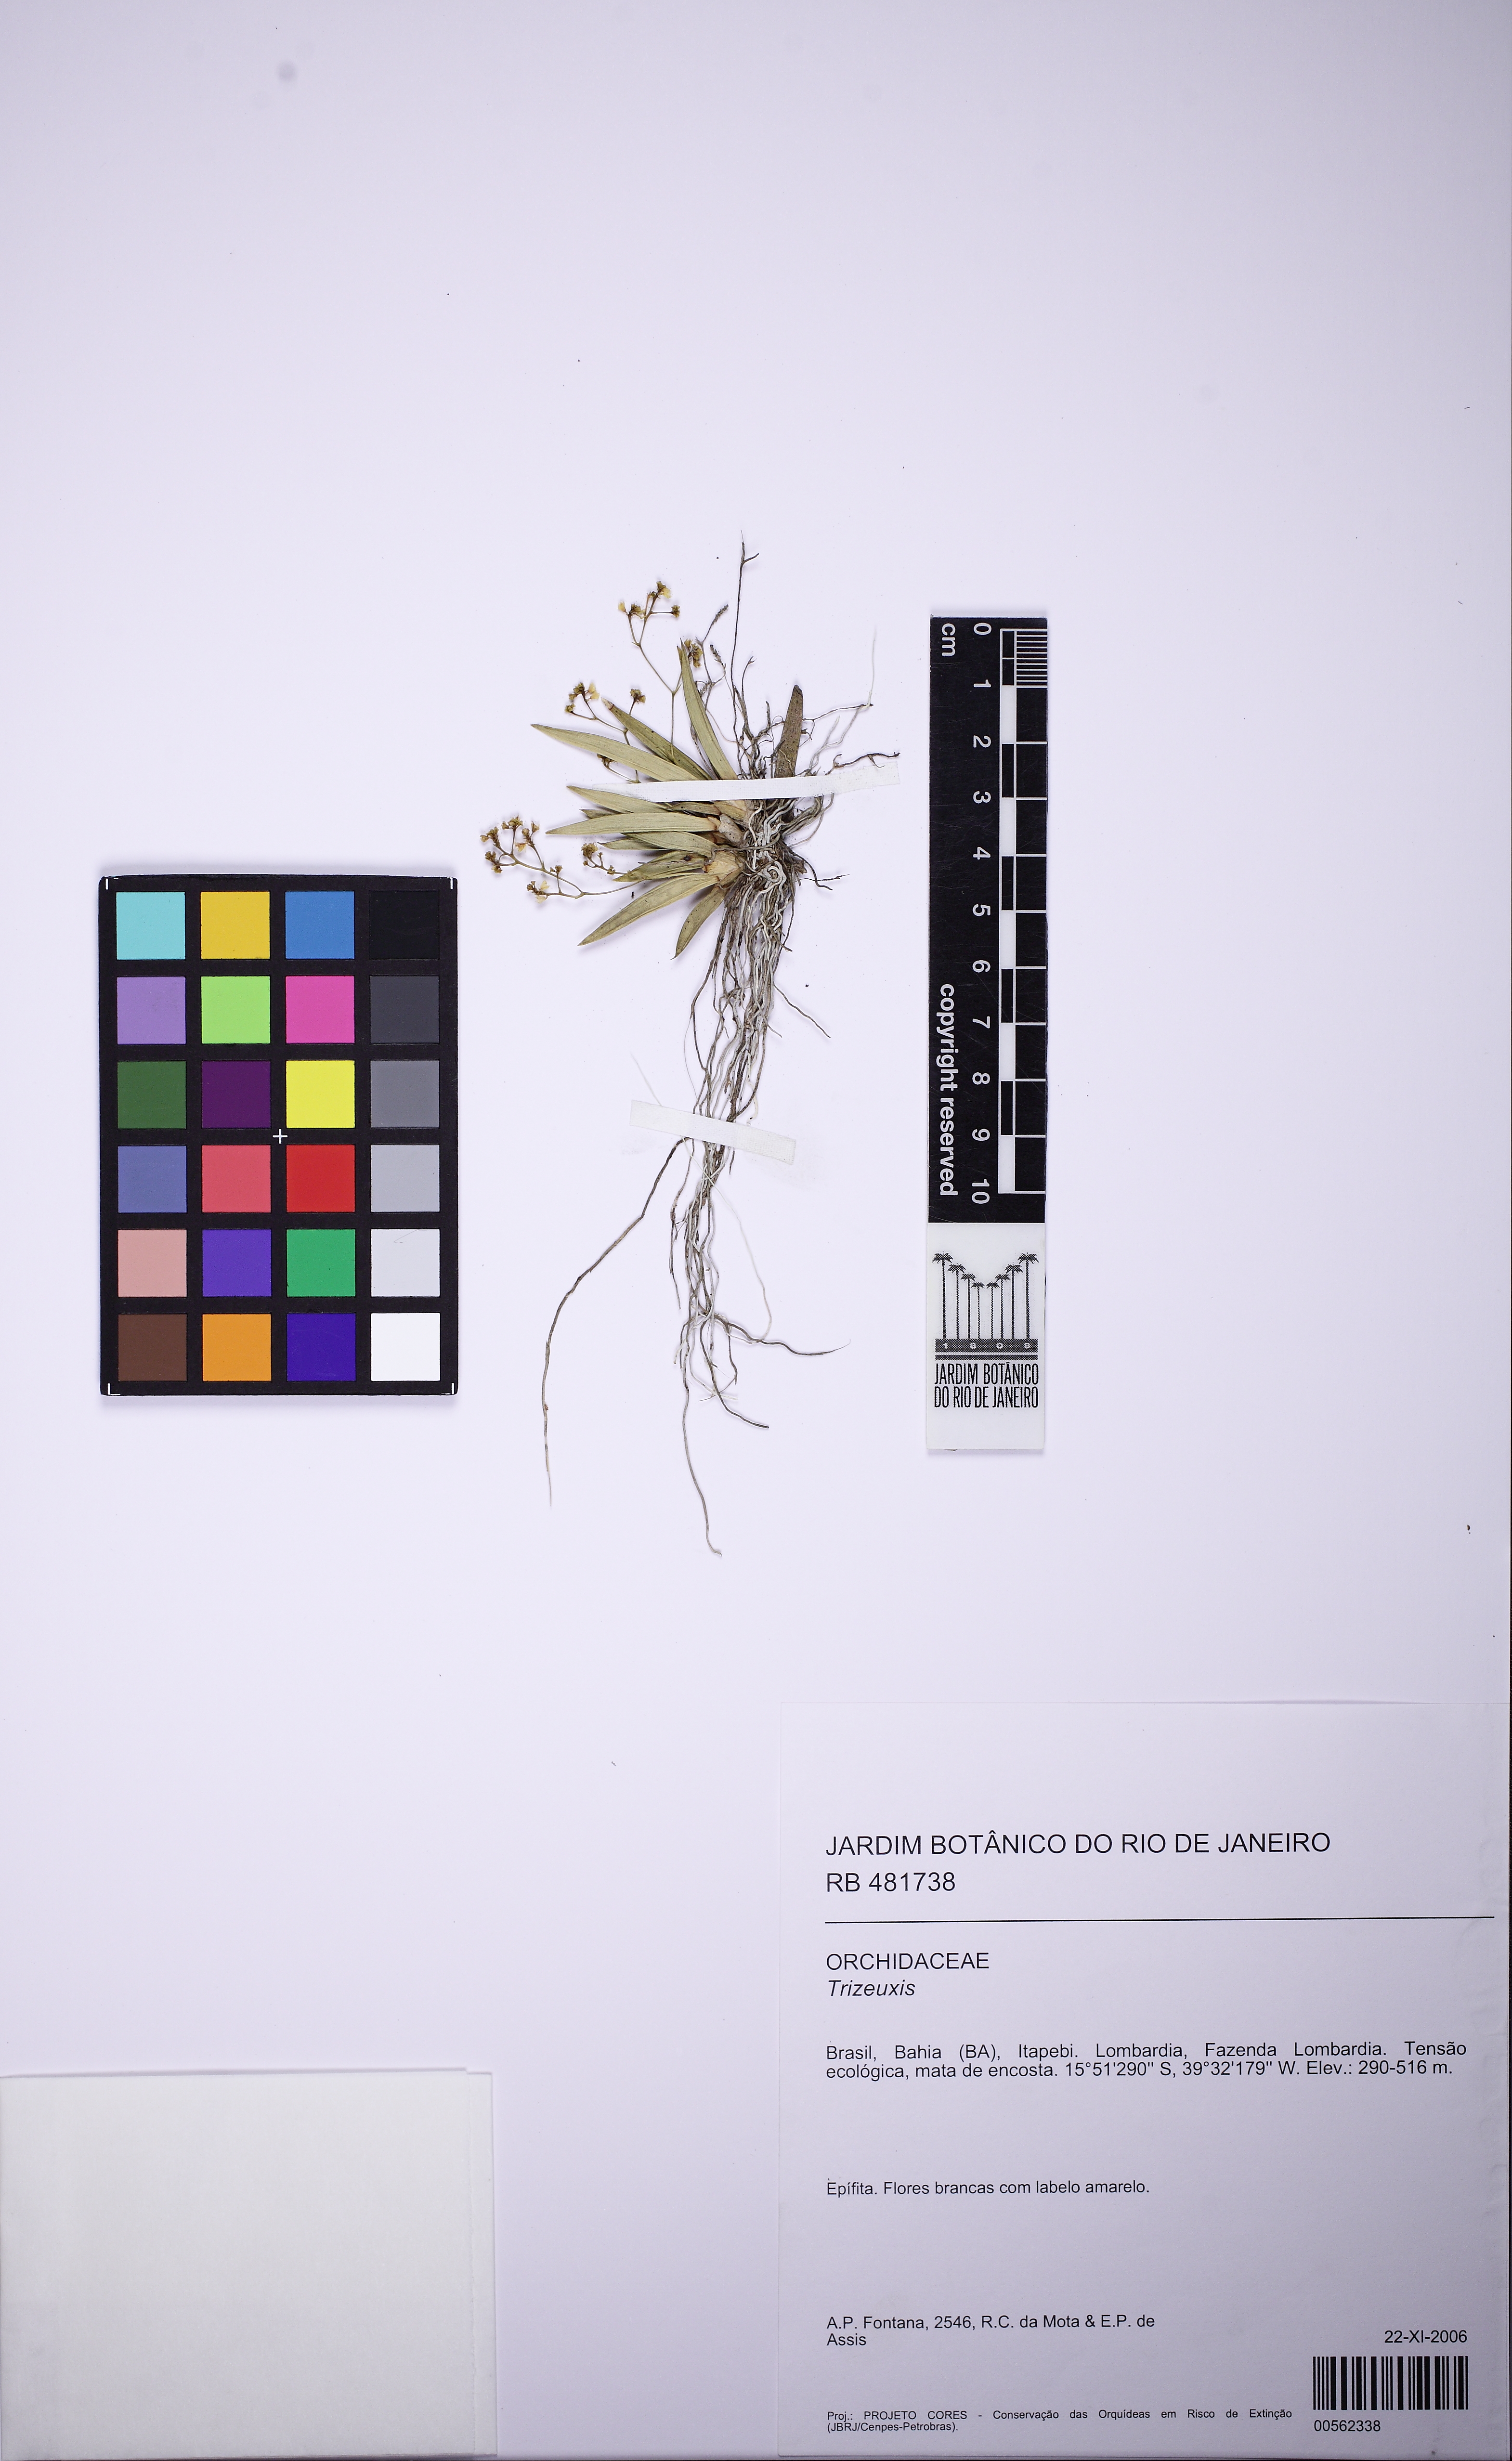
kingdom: Plantae
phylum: Tracheophyta
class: Liliopsida
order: Asparagales
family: Orchidaceae
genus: Trizeuxis
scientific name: Trizeuxis falcata
